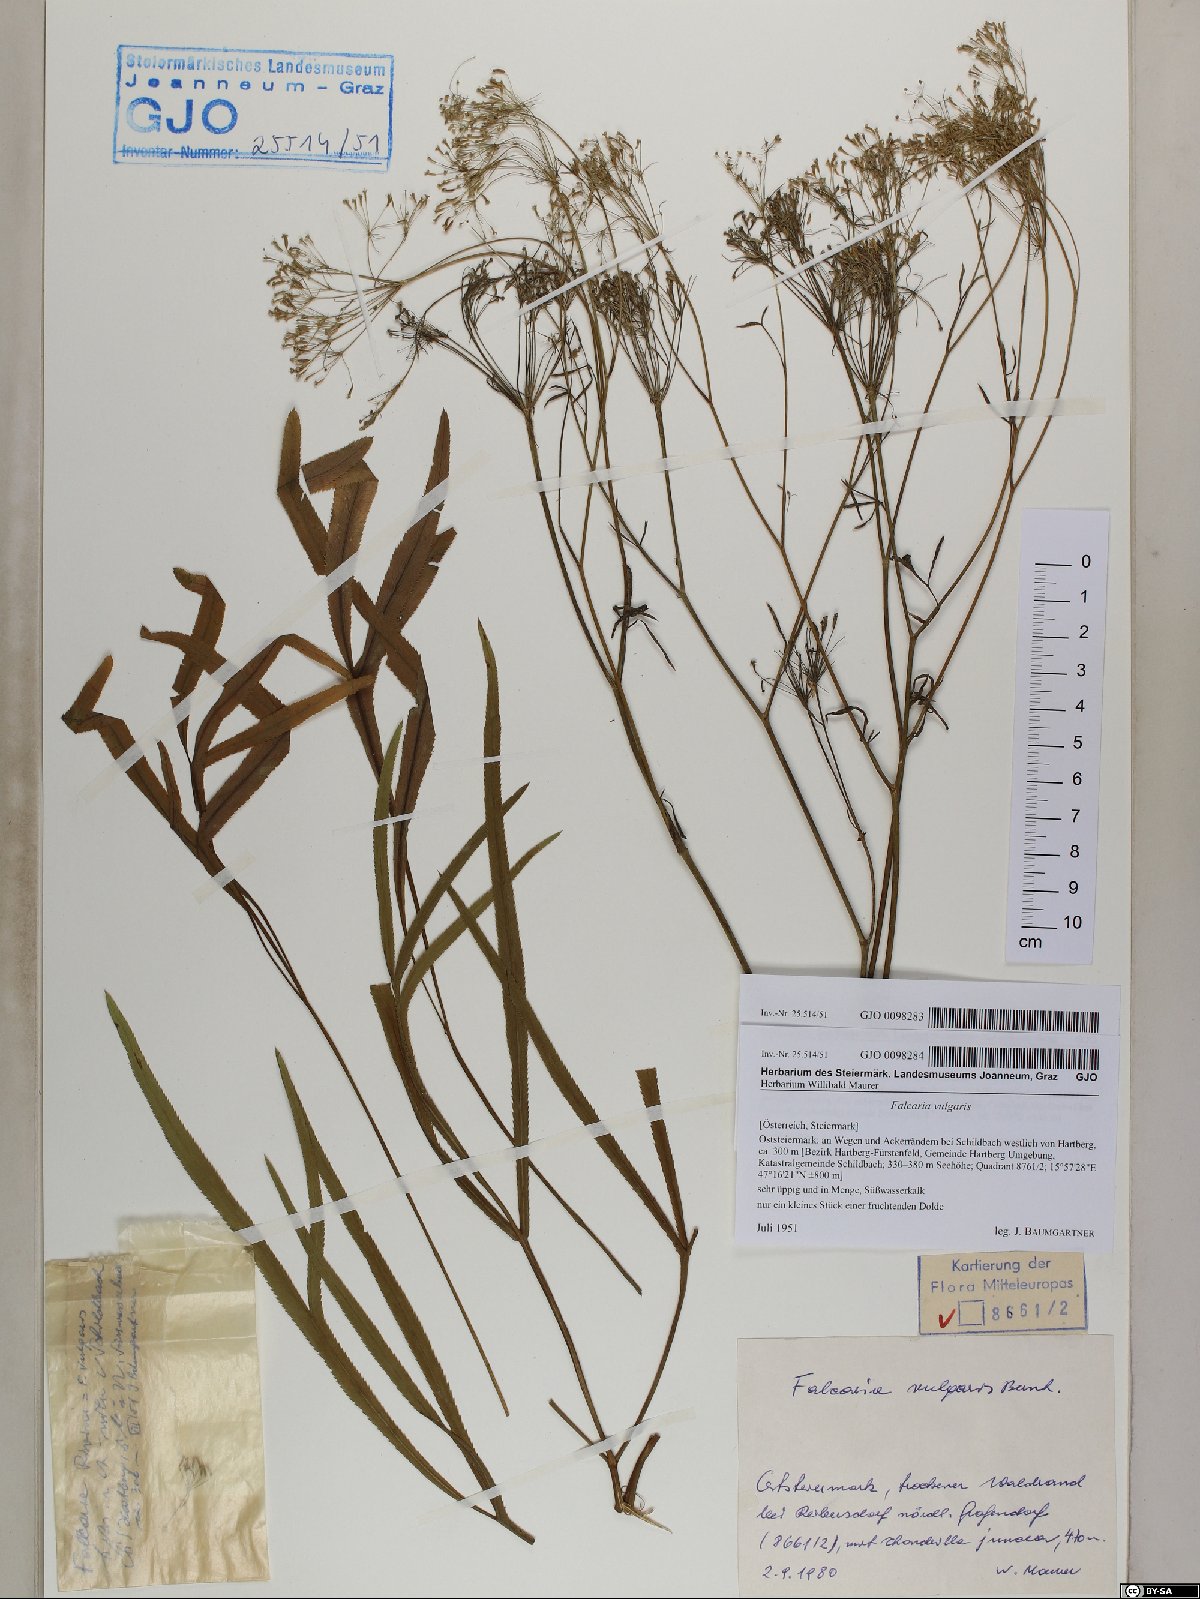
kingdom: Plantae
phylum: Tracheophyta
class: Magnoliopsida
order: Apiales
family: Apiaceae
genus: Falcaria
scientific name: Falcaria vulgaris
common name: Longleaf
